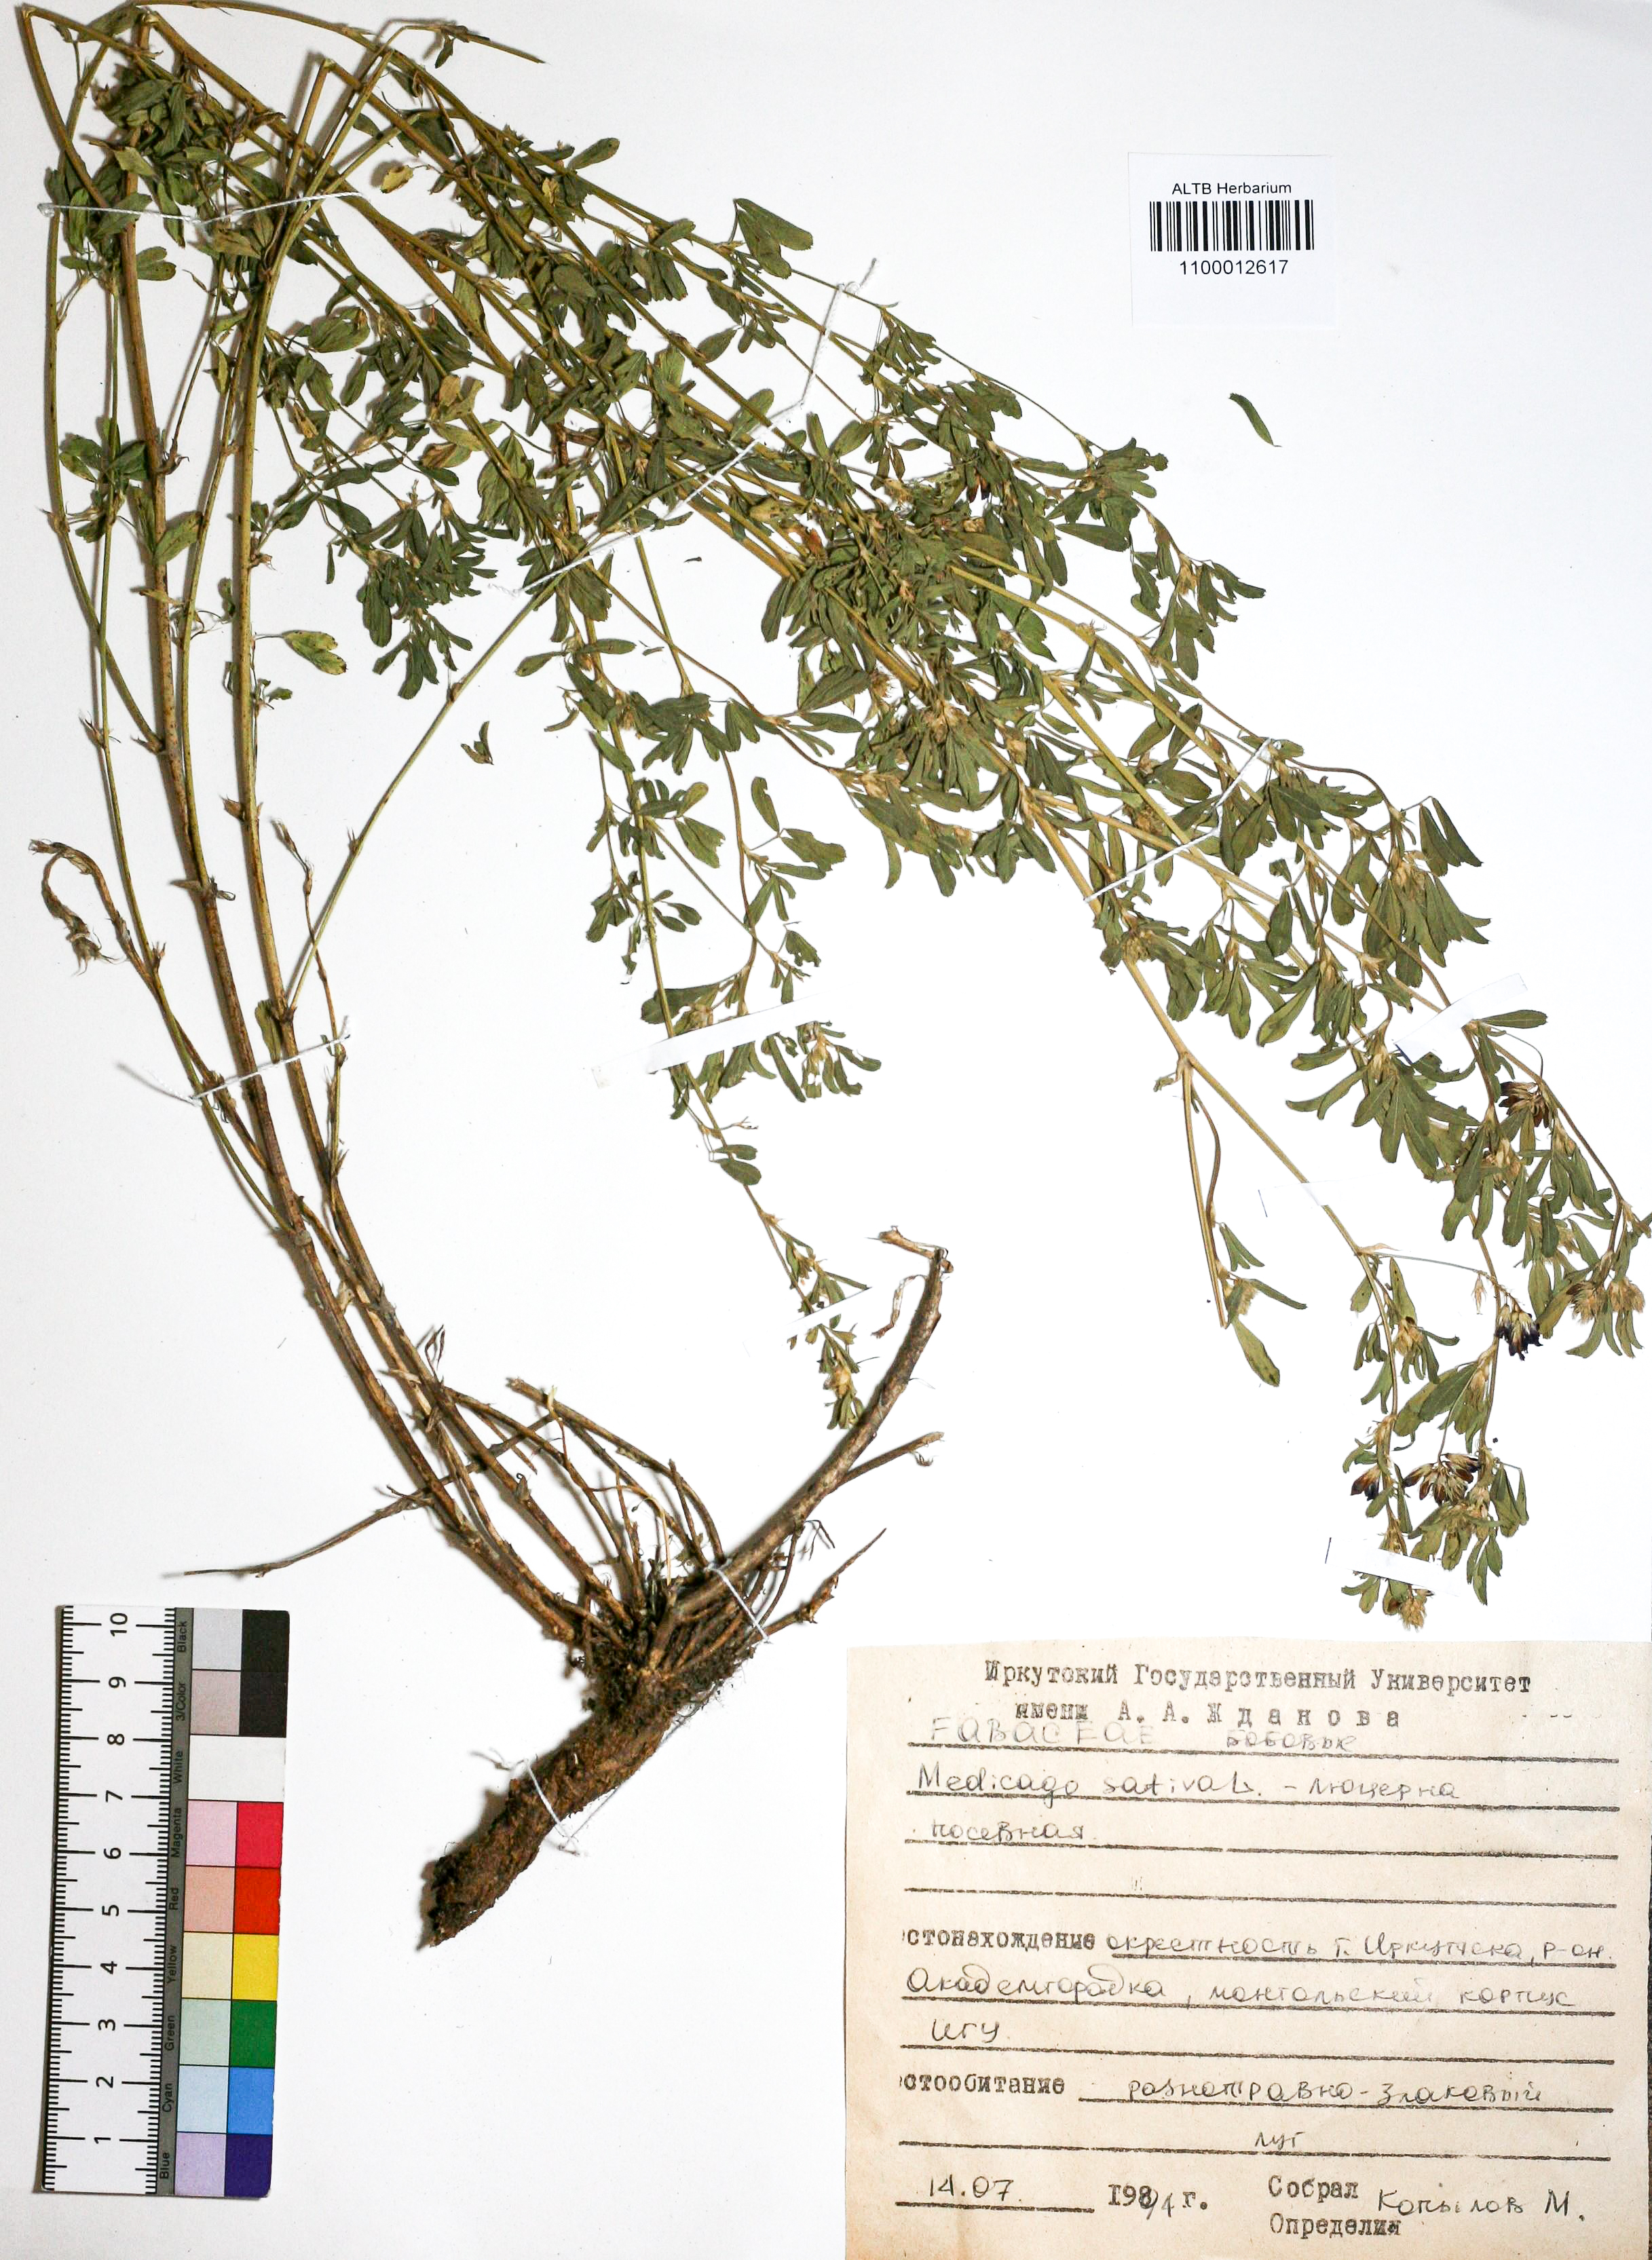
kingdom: Plantae
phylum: Tracheophyta
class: Magnoliopsida
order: Fabales
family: Fabaceae
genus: Medicago
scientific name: Medicago sativa
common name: Alfalfa
